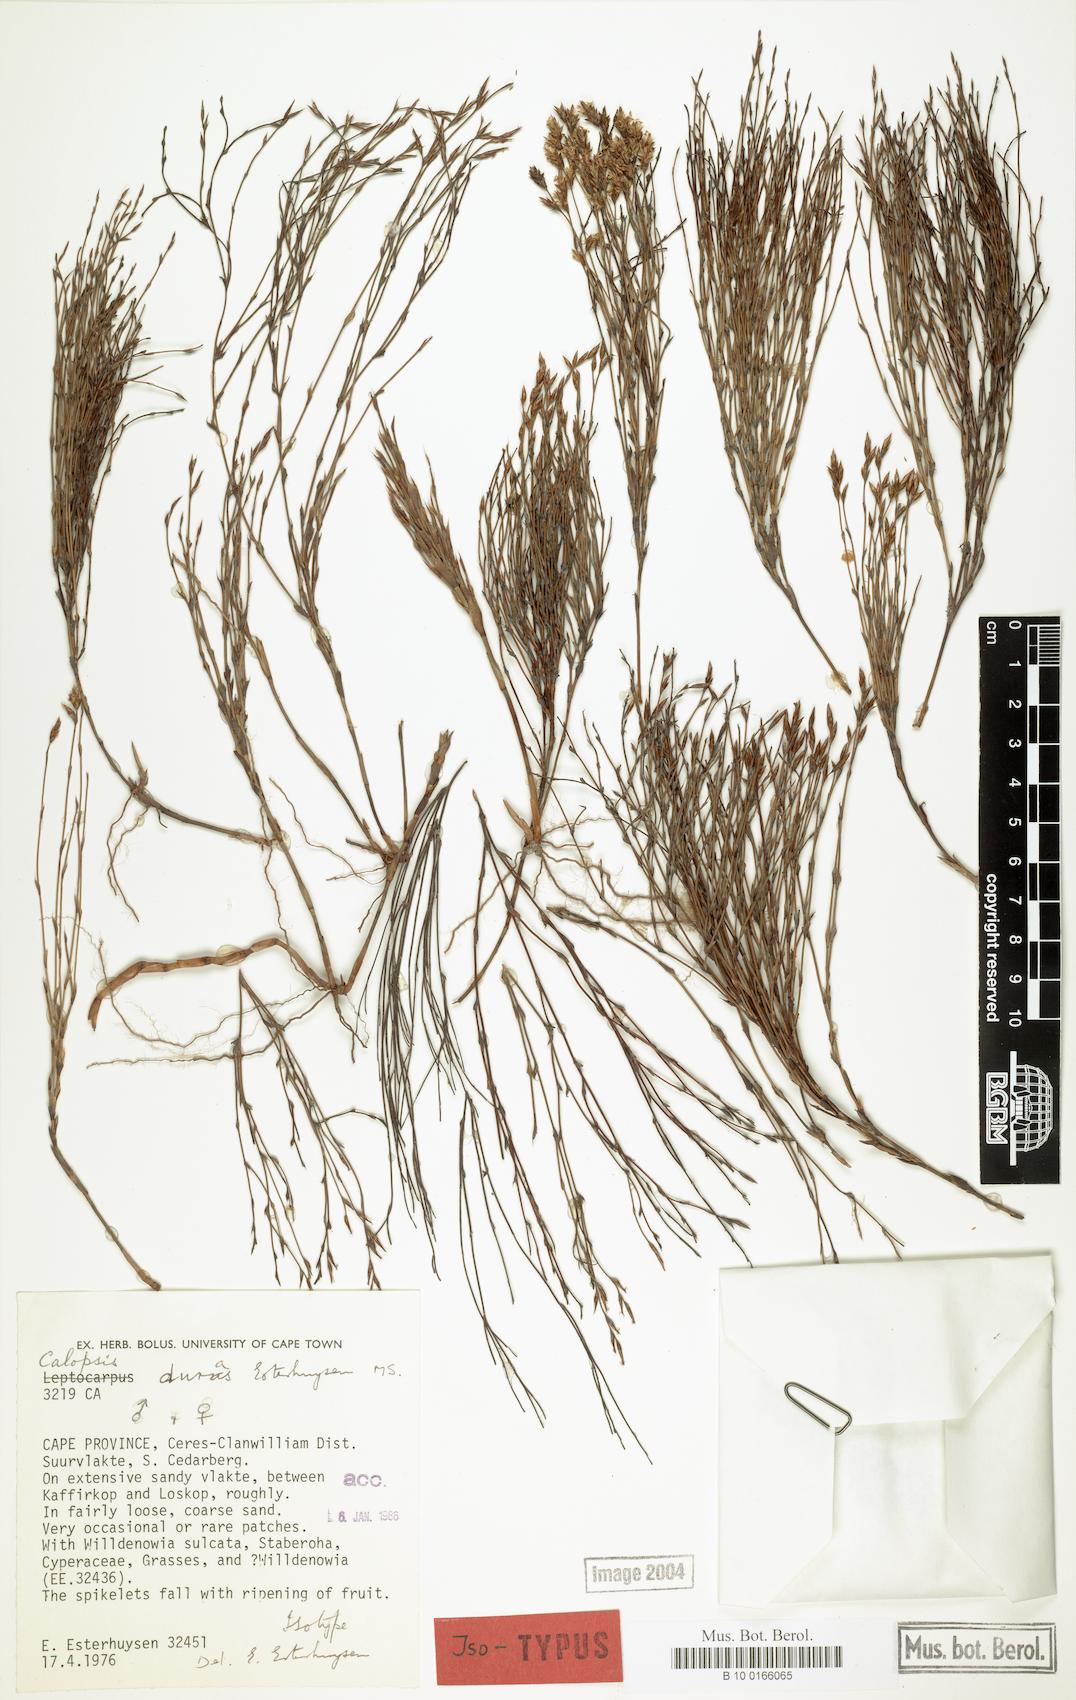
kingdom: Plantae
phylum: Tracheophyta
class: Liliopsida
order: Poales
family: Restionaceae
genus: Restio
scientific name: Restio durus
